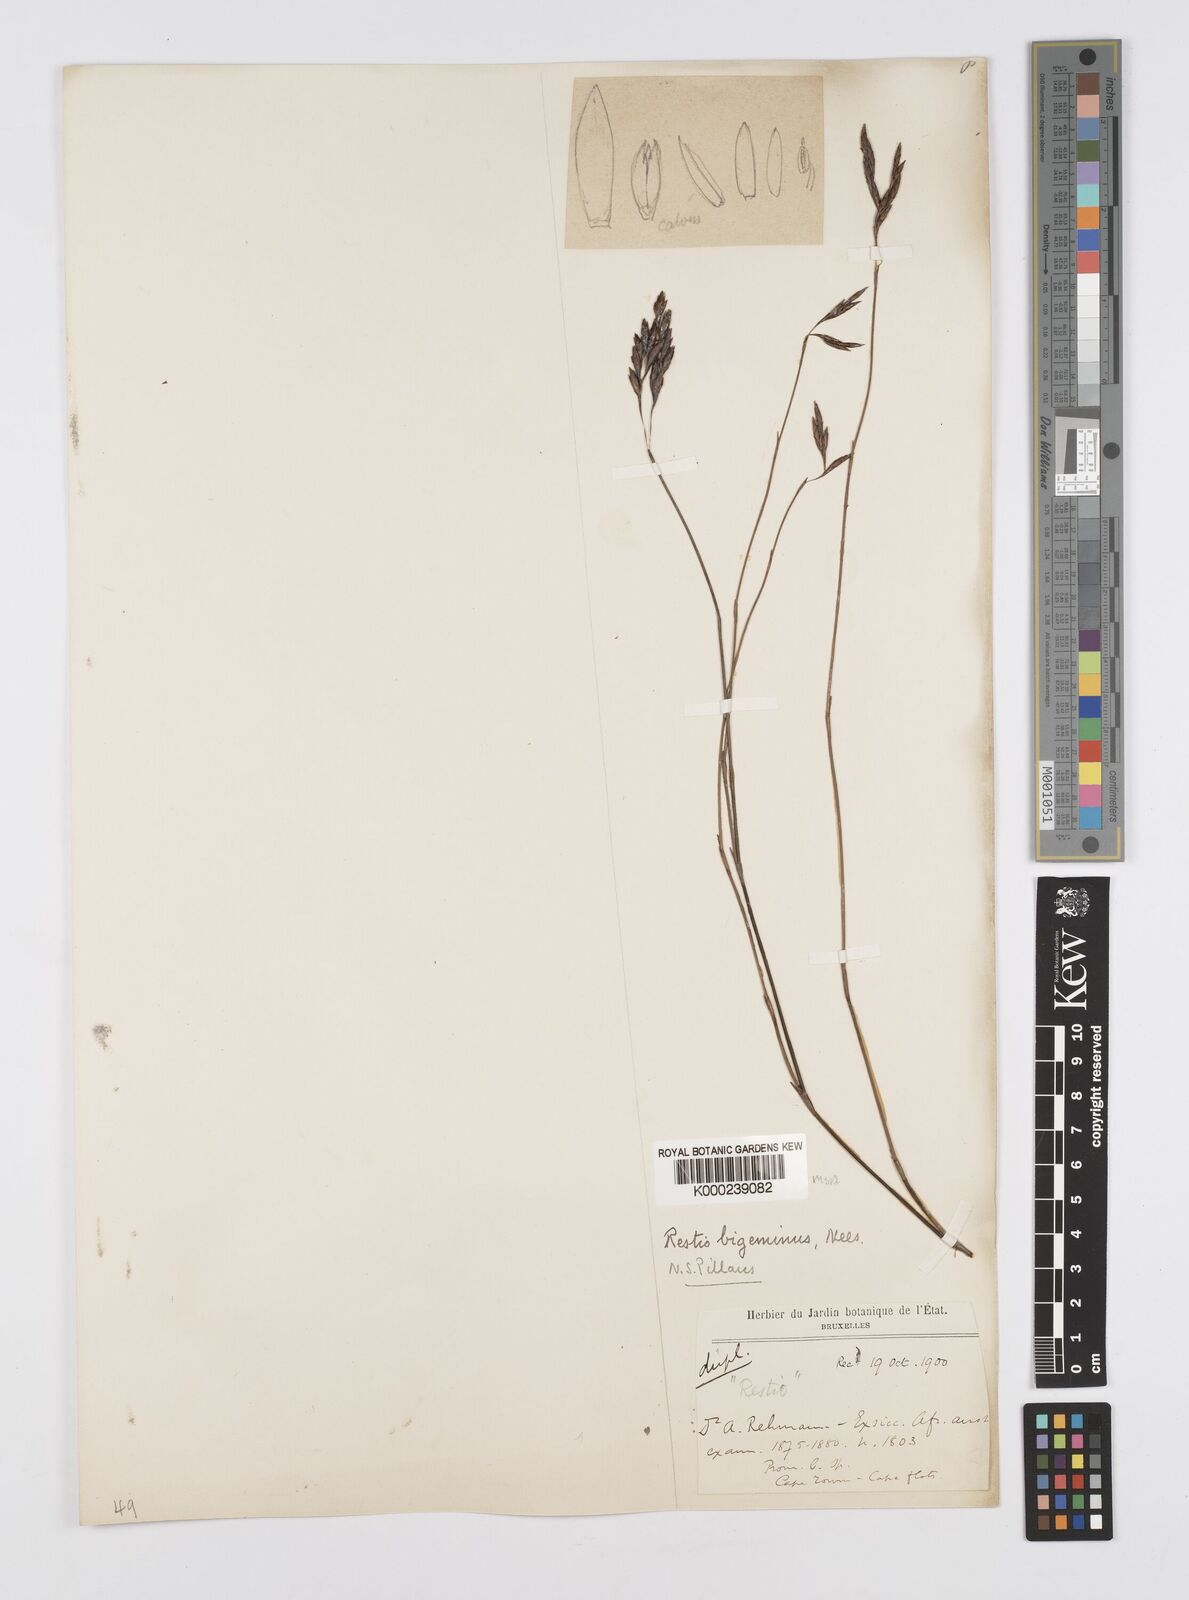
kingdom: Plantae
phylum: Tracheophyta
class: Liliopsida
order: Poales
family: Restionaceae
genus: Restio
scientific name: Restio micans
